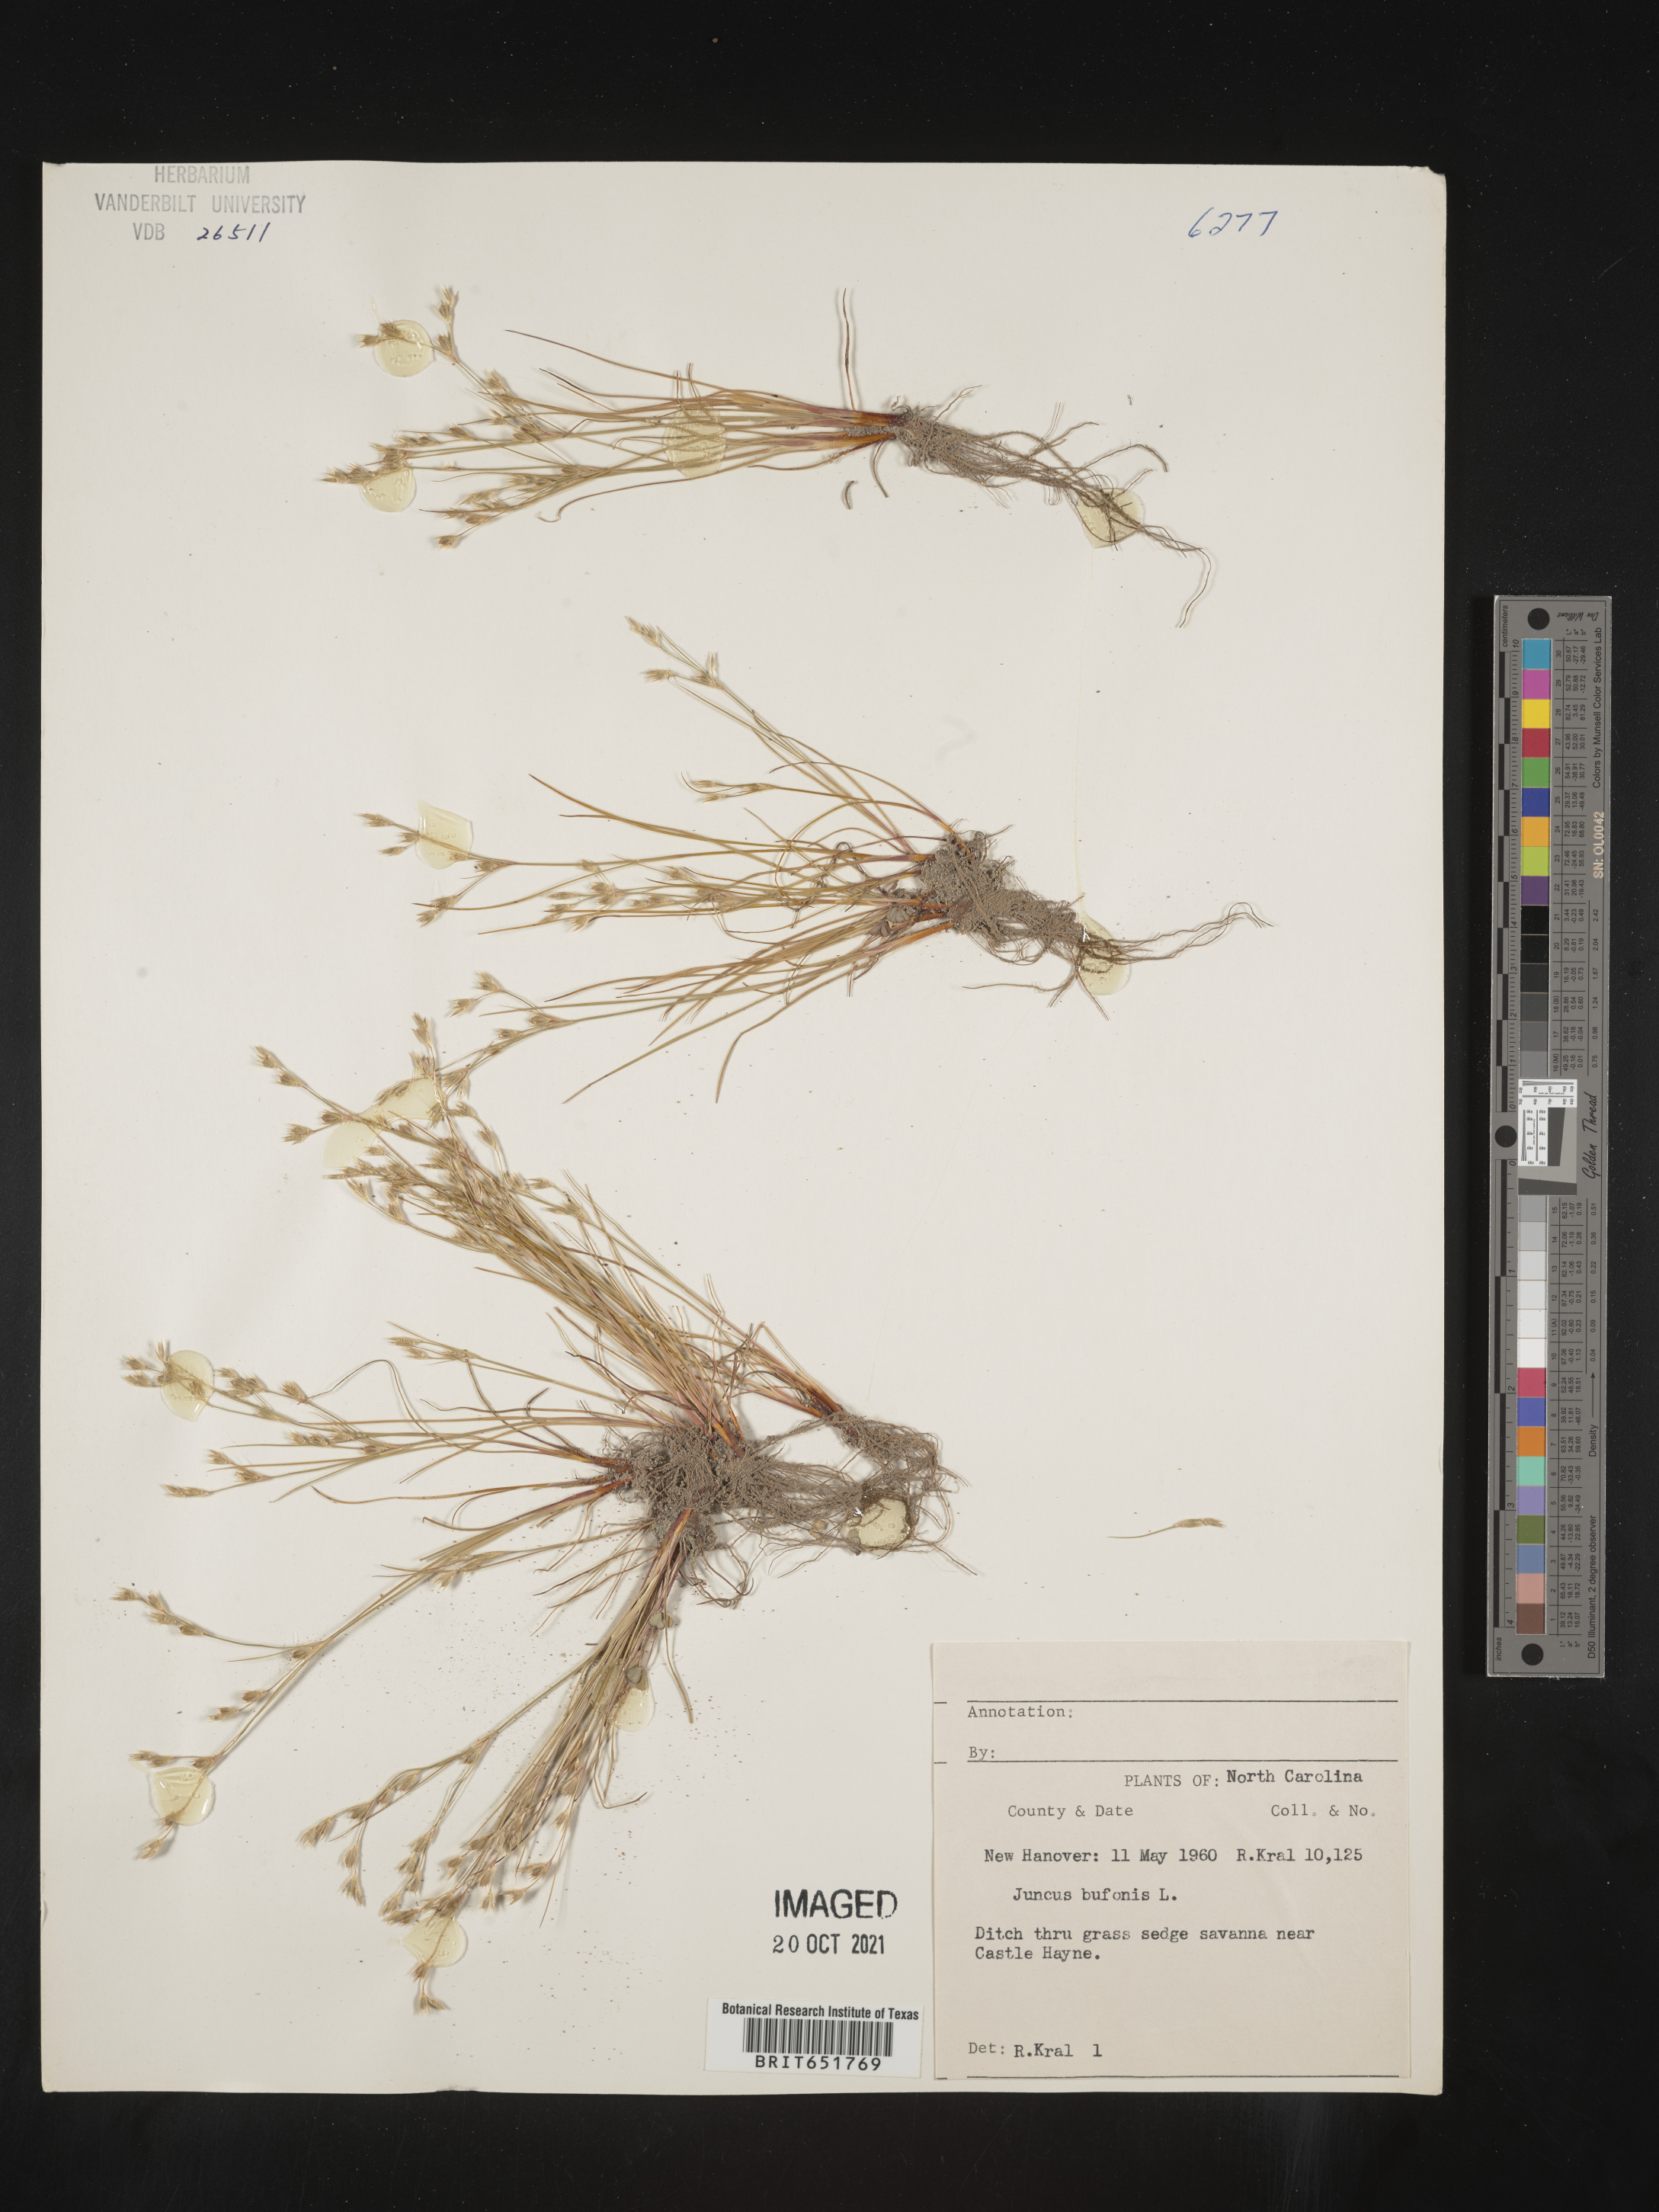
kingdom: Plantae
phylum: Tracheophyta
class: Liliopsida
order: Poales
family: Juncaceae
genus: Juncus
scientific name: Juncus bufonius
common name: Toad rush
